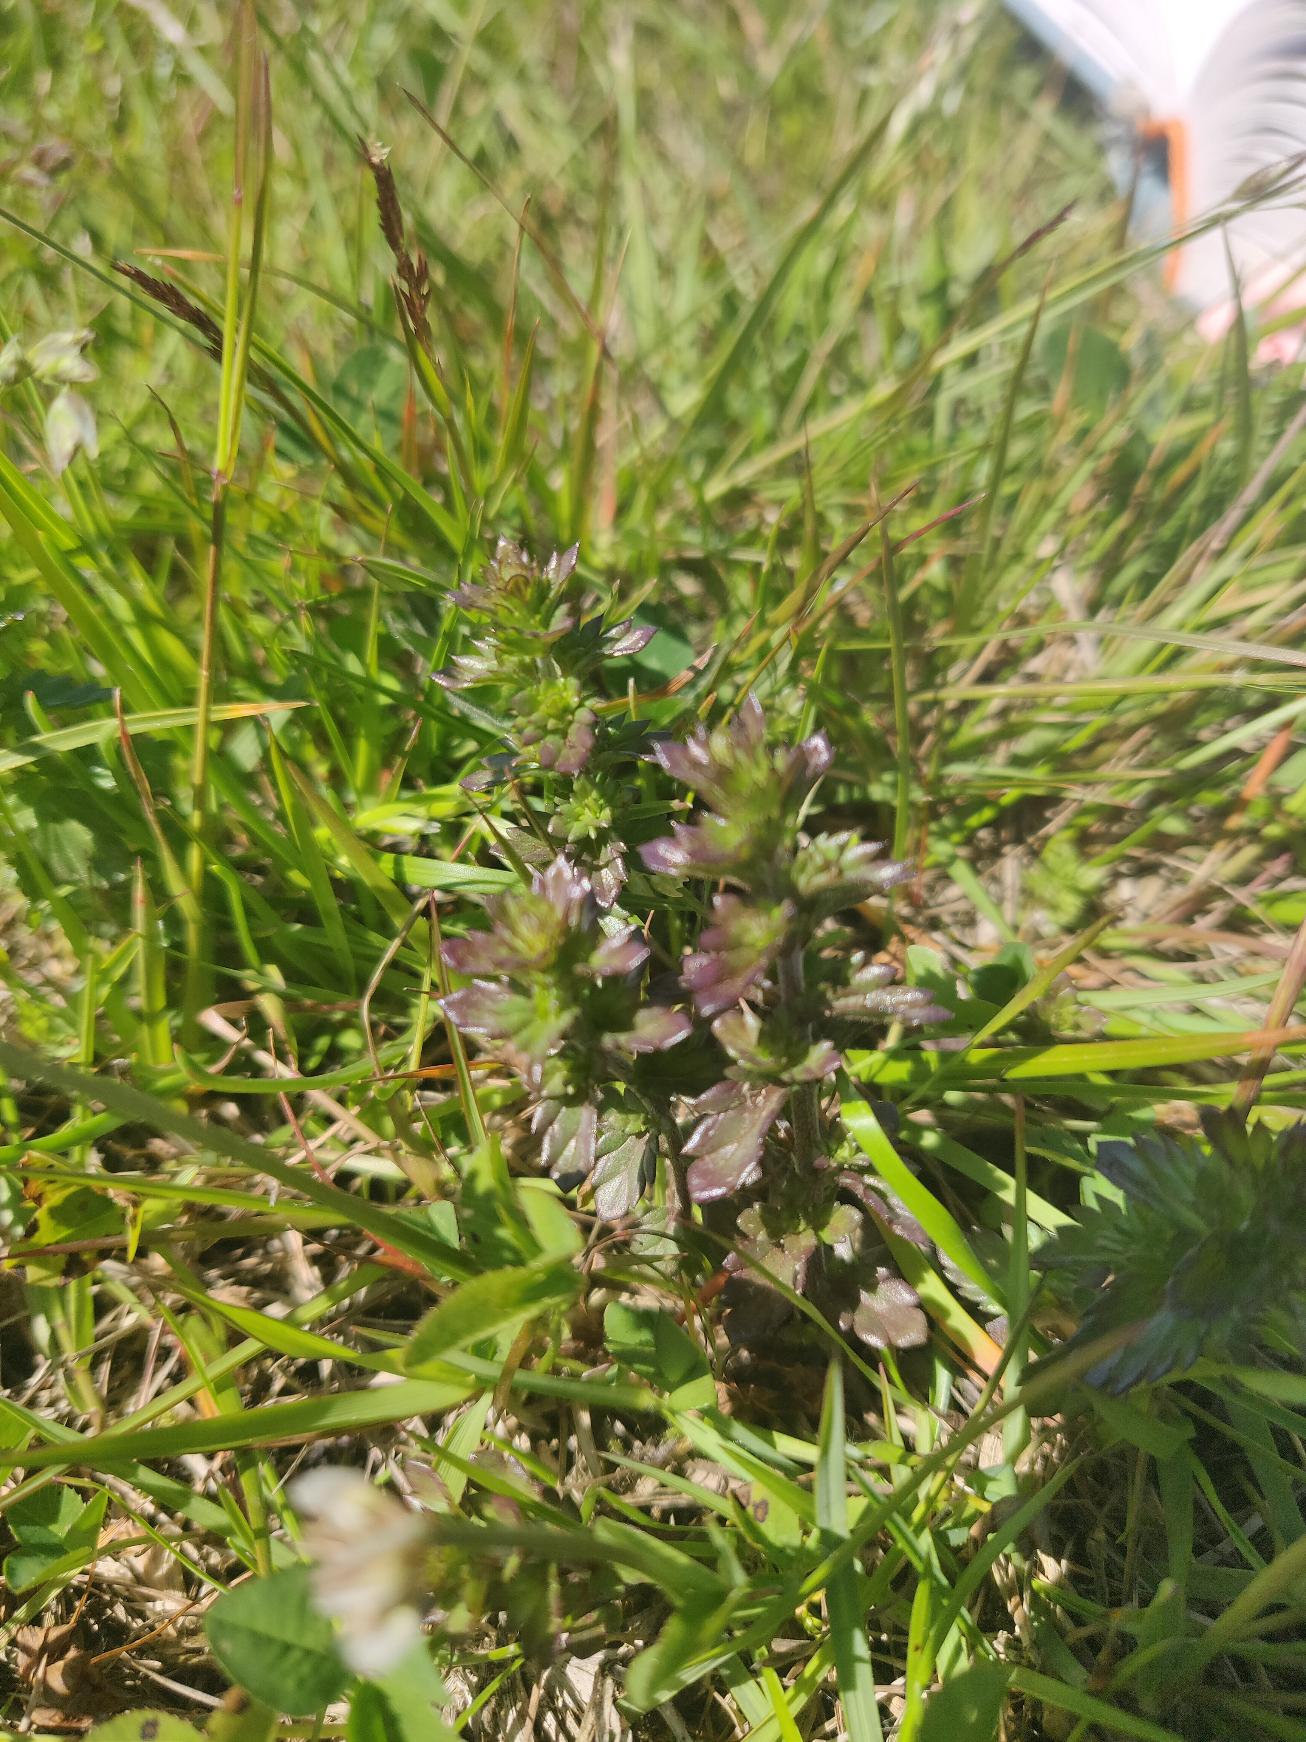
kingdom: Plantae
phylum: Tracheophyta
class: Magnoliopsida
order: Lamiales
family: Orobanchaceae
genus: Euphrasia
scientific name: Euphrasia stricta
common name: Spids øjentrøst
